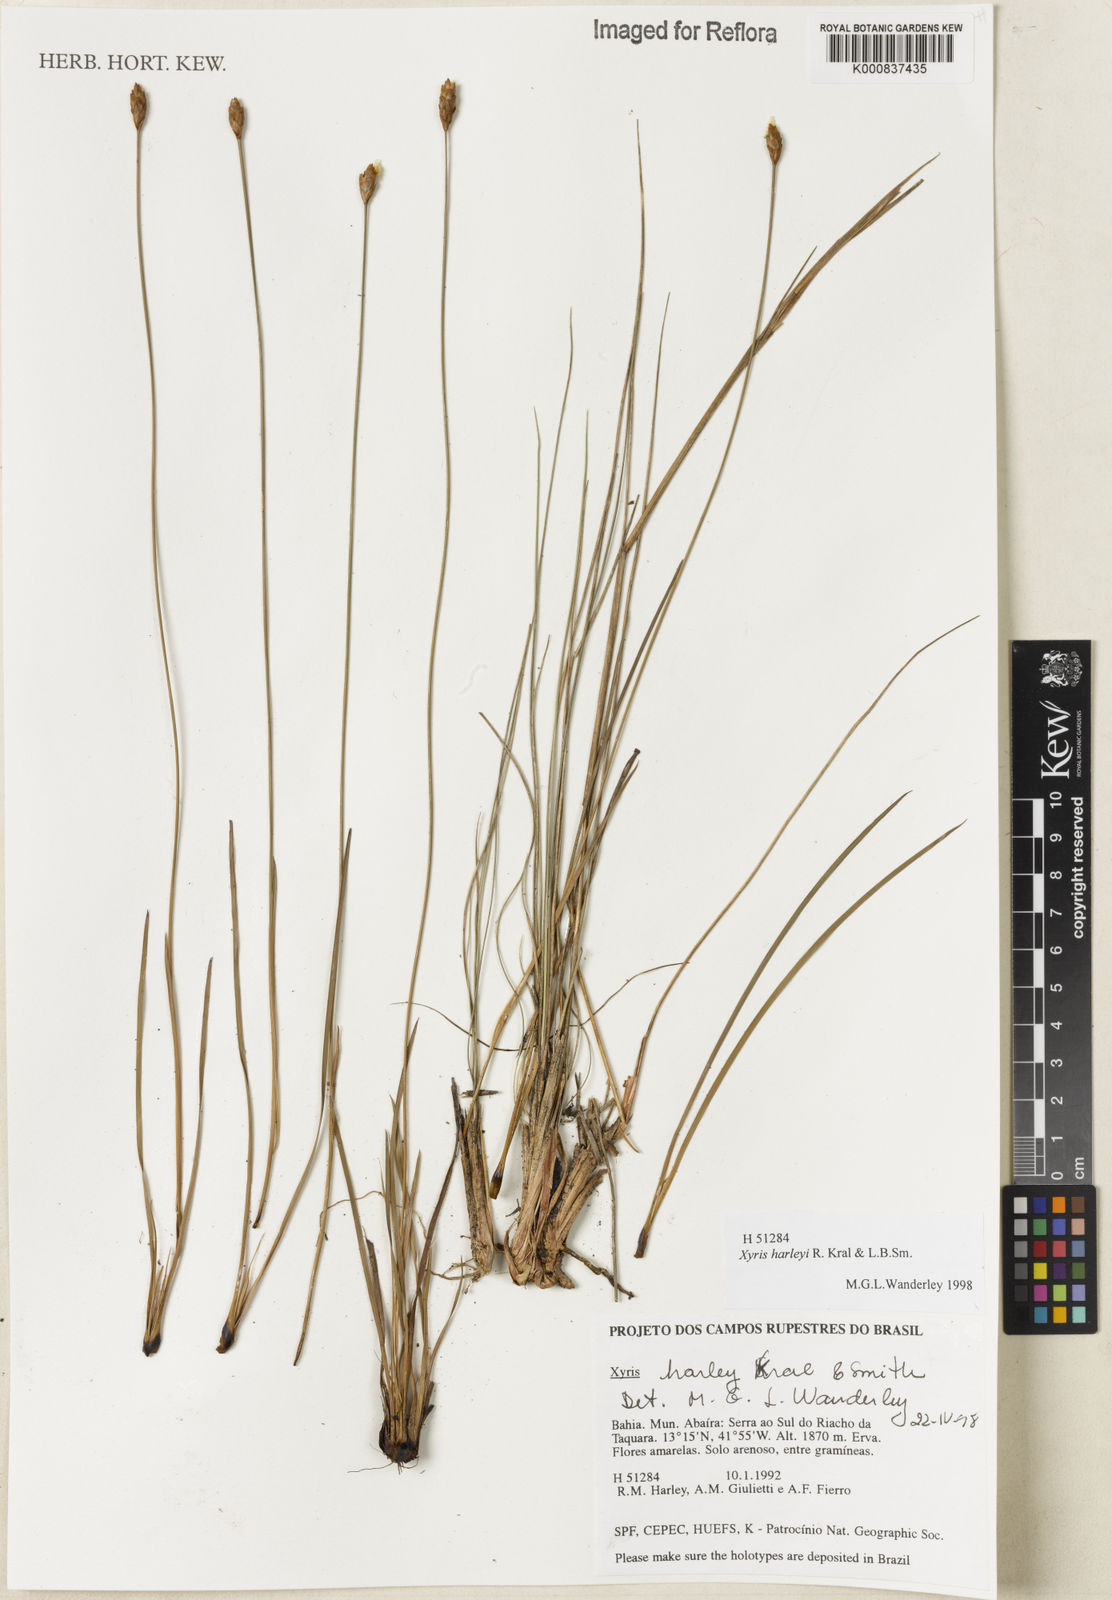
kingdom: Plantae
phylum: Tracheophyta
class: Liliopsida
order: Poales
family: Xyridaceae
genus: Xyris
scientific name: Xyris harleyi
